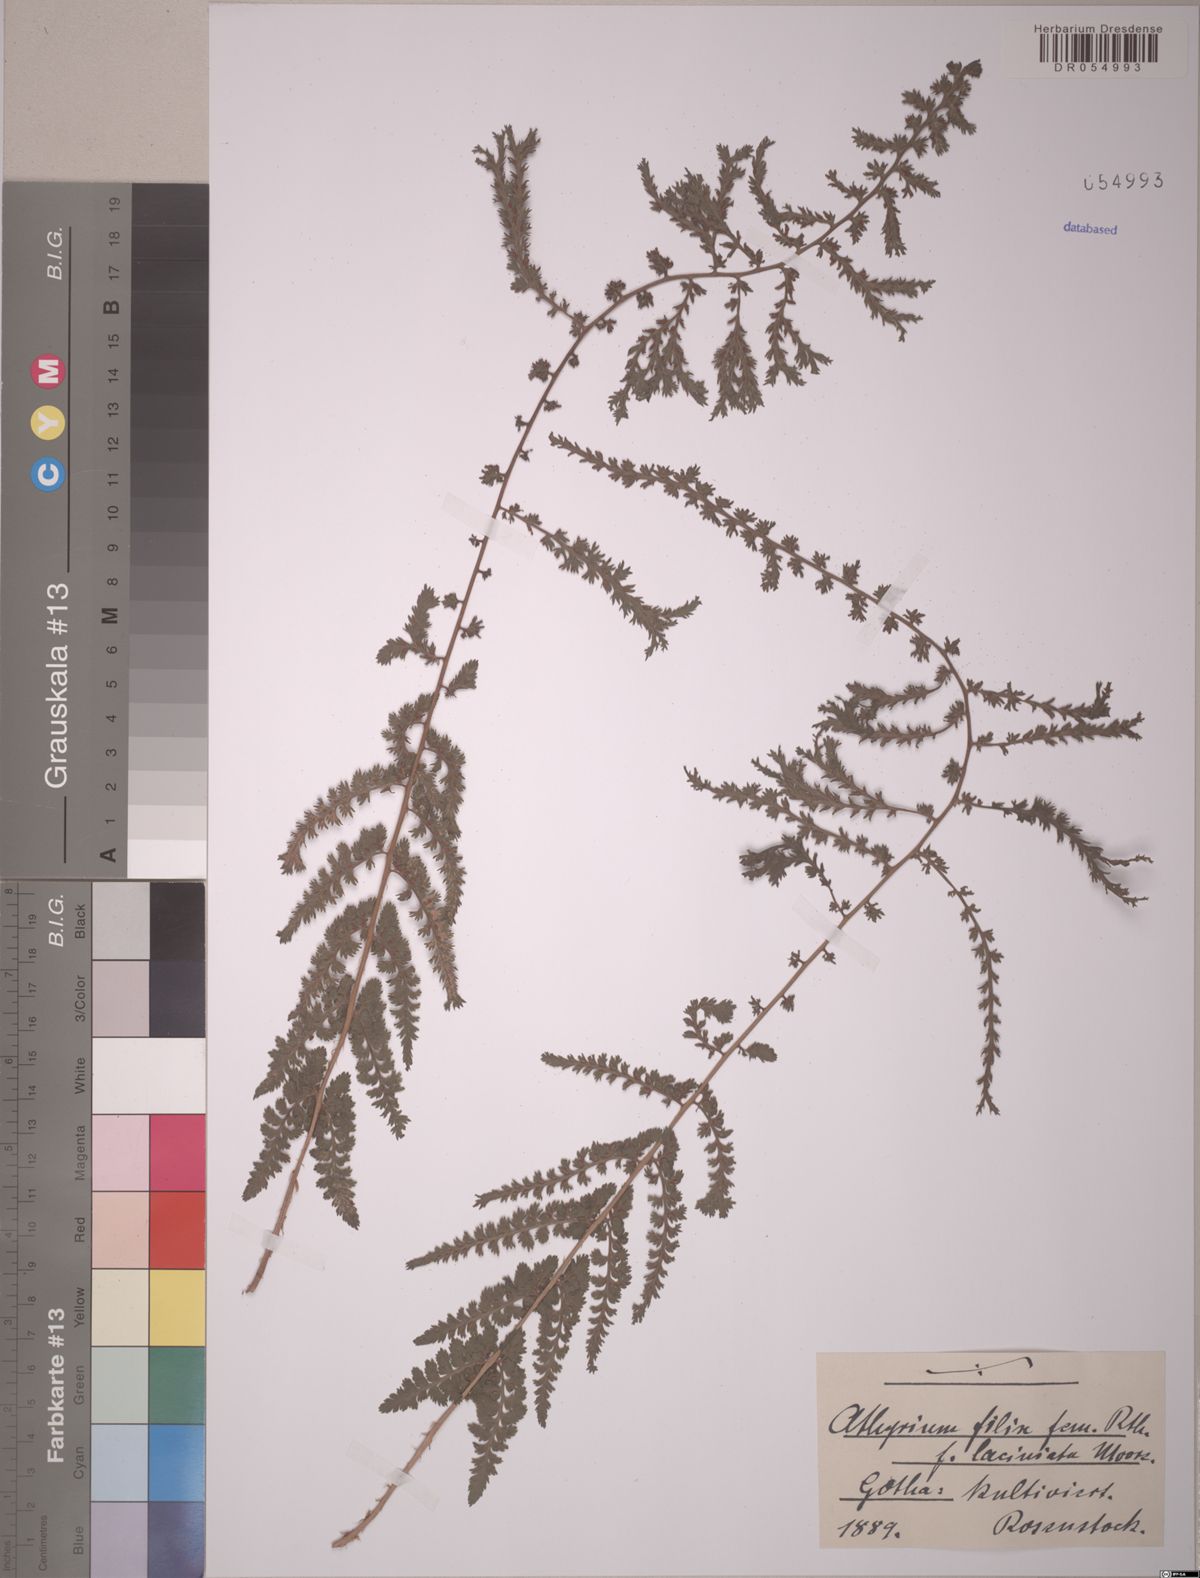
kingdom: Plantae
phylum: Tracheophyta
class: Polypodiopsida
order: Polypodiales
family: Athyriaceae
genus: Athyrium
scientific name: Athyrium filix-femina
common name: Lady fern
